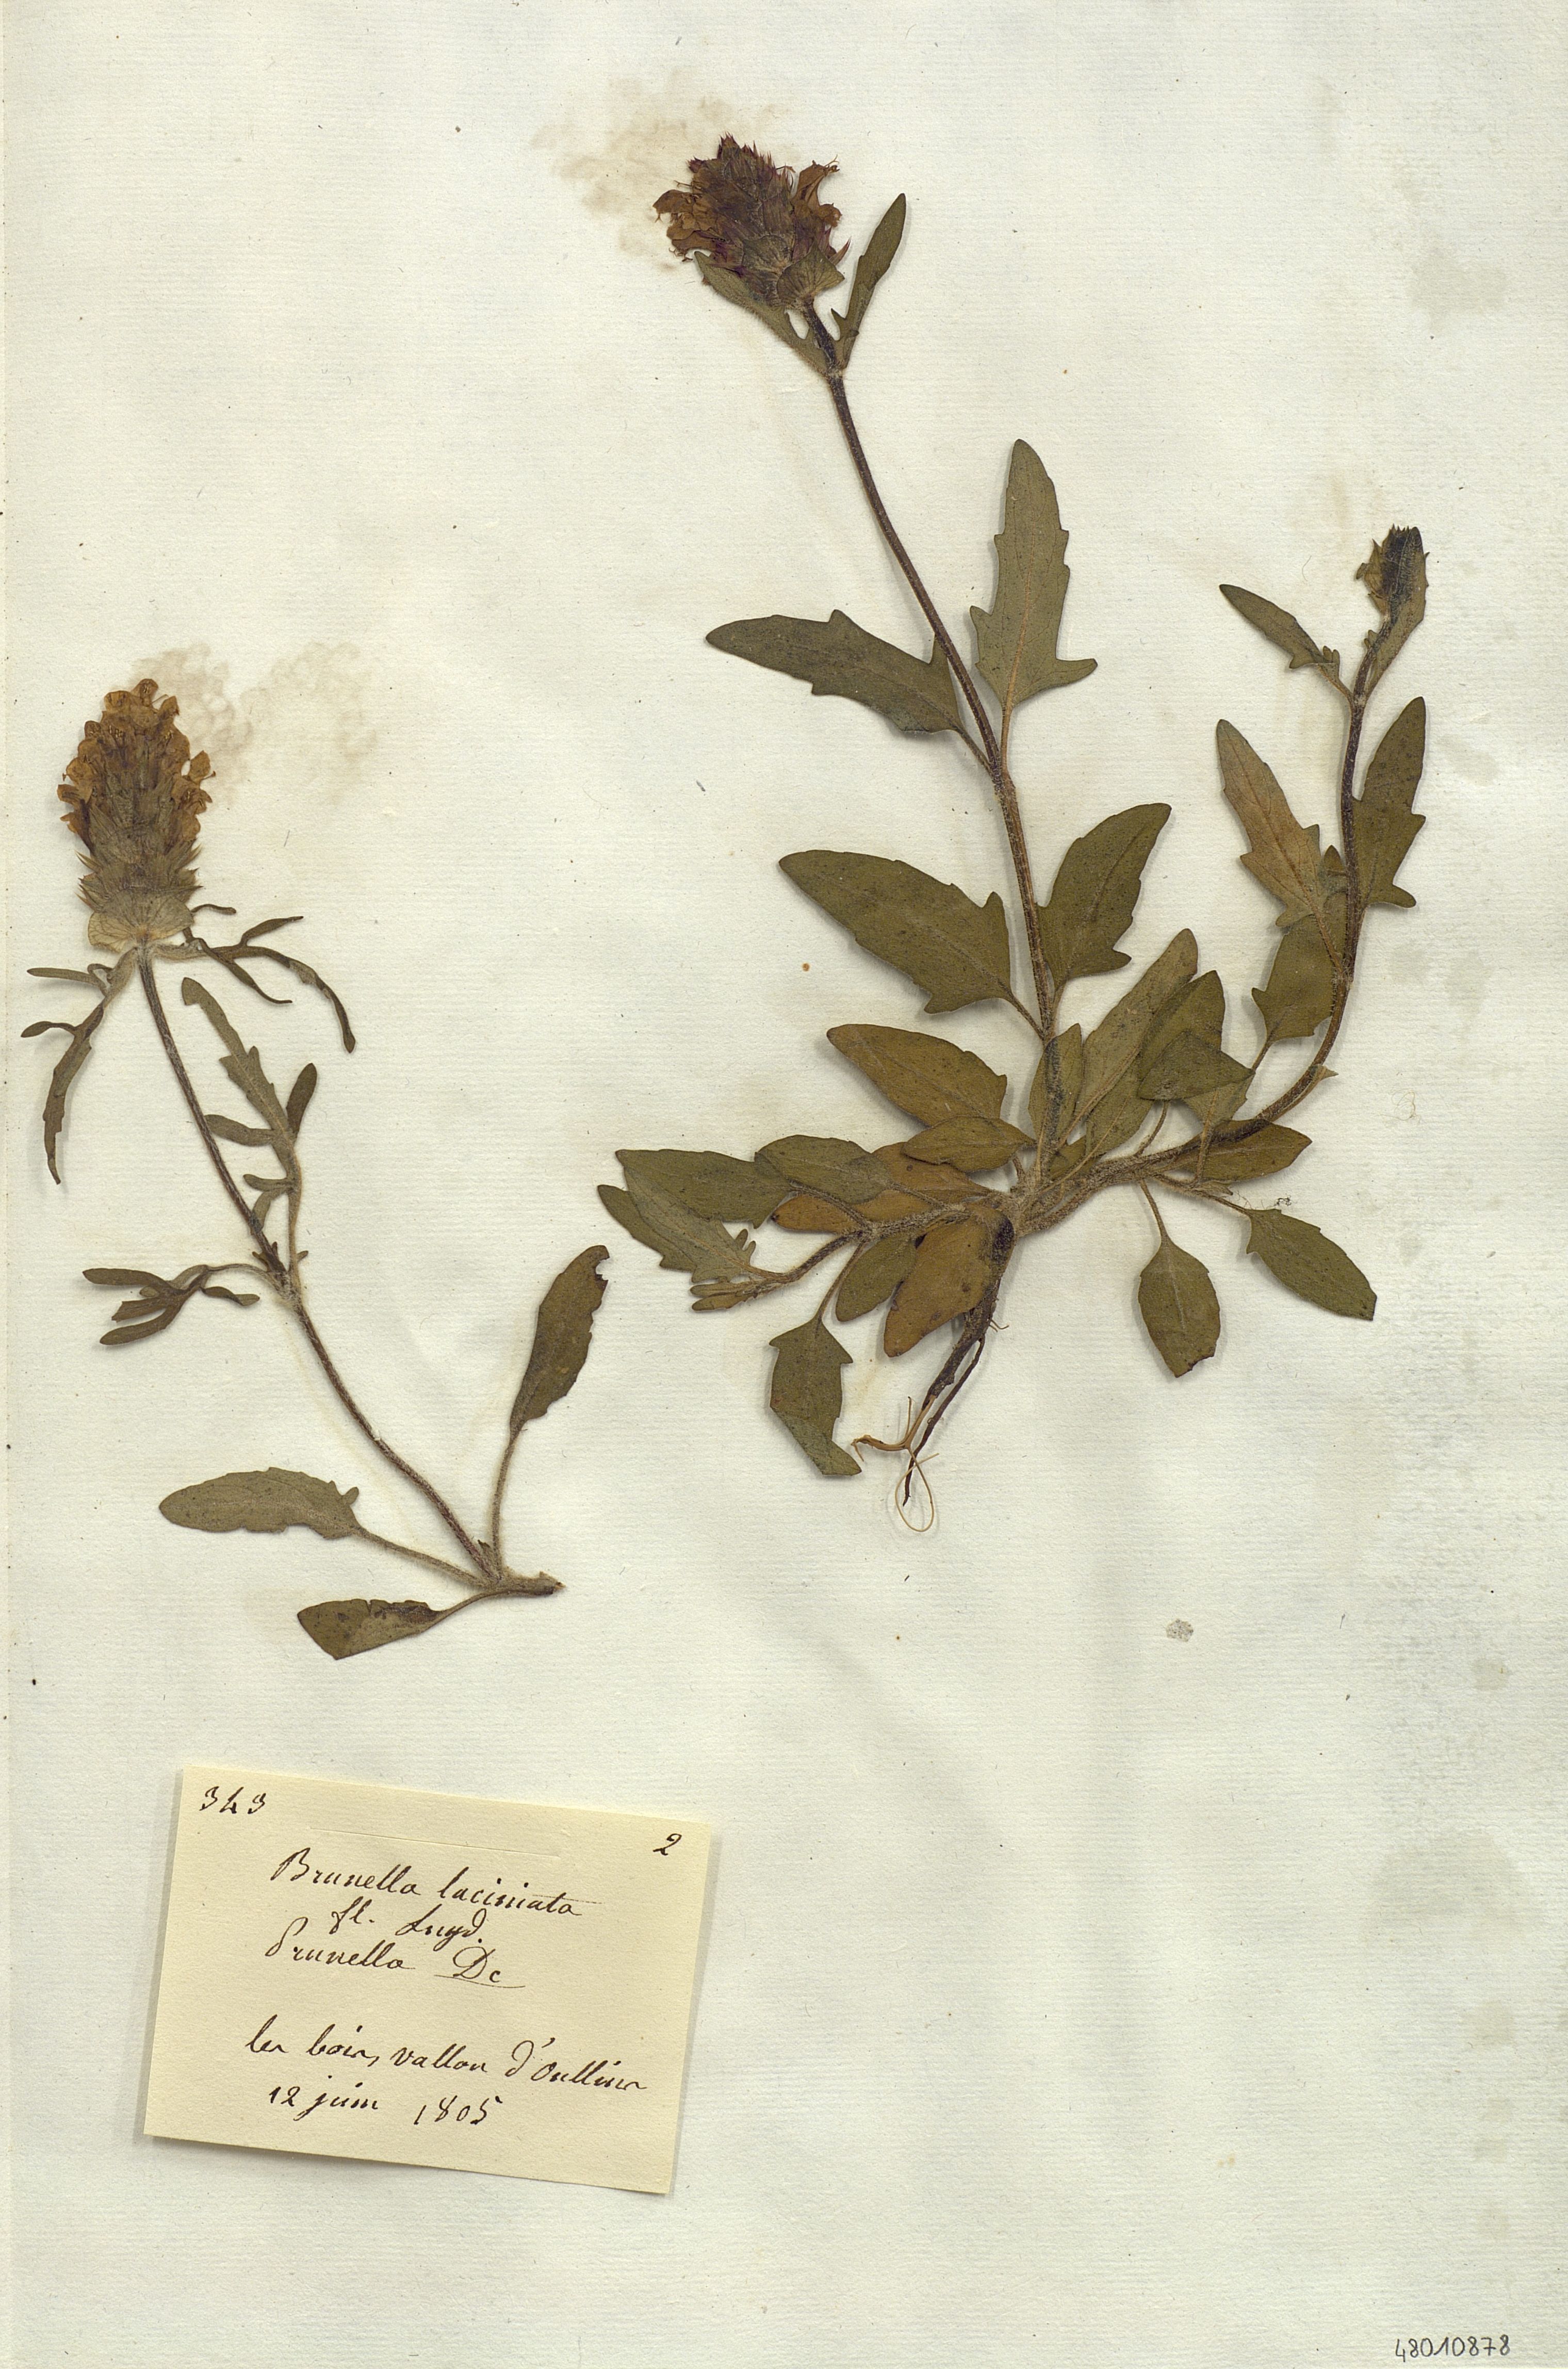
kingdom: Plantae
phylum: Tracheophyta
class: Magnoliopsida
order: Lamiales
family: Lamiaceae
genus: Brunella
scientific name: Brunella
